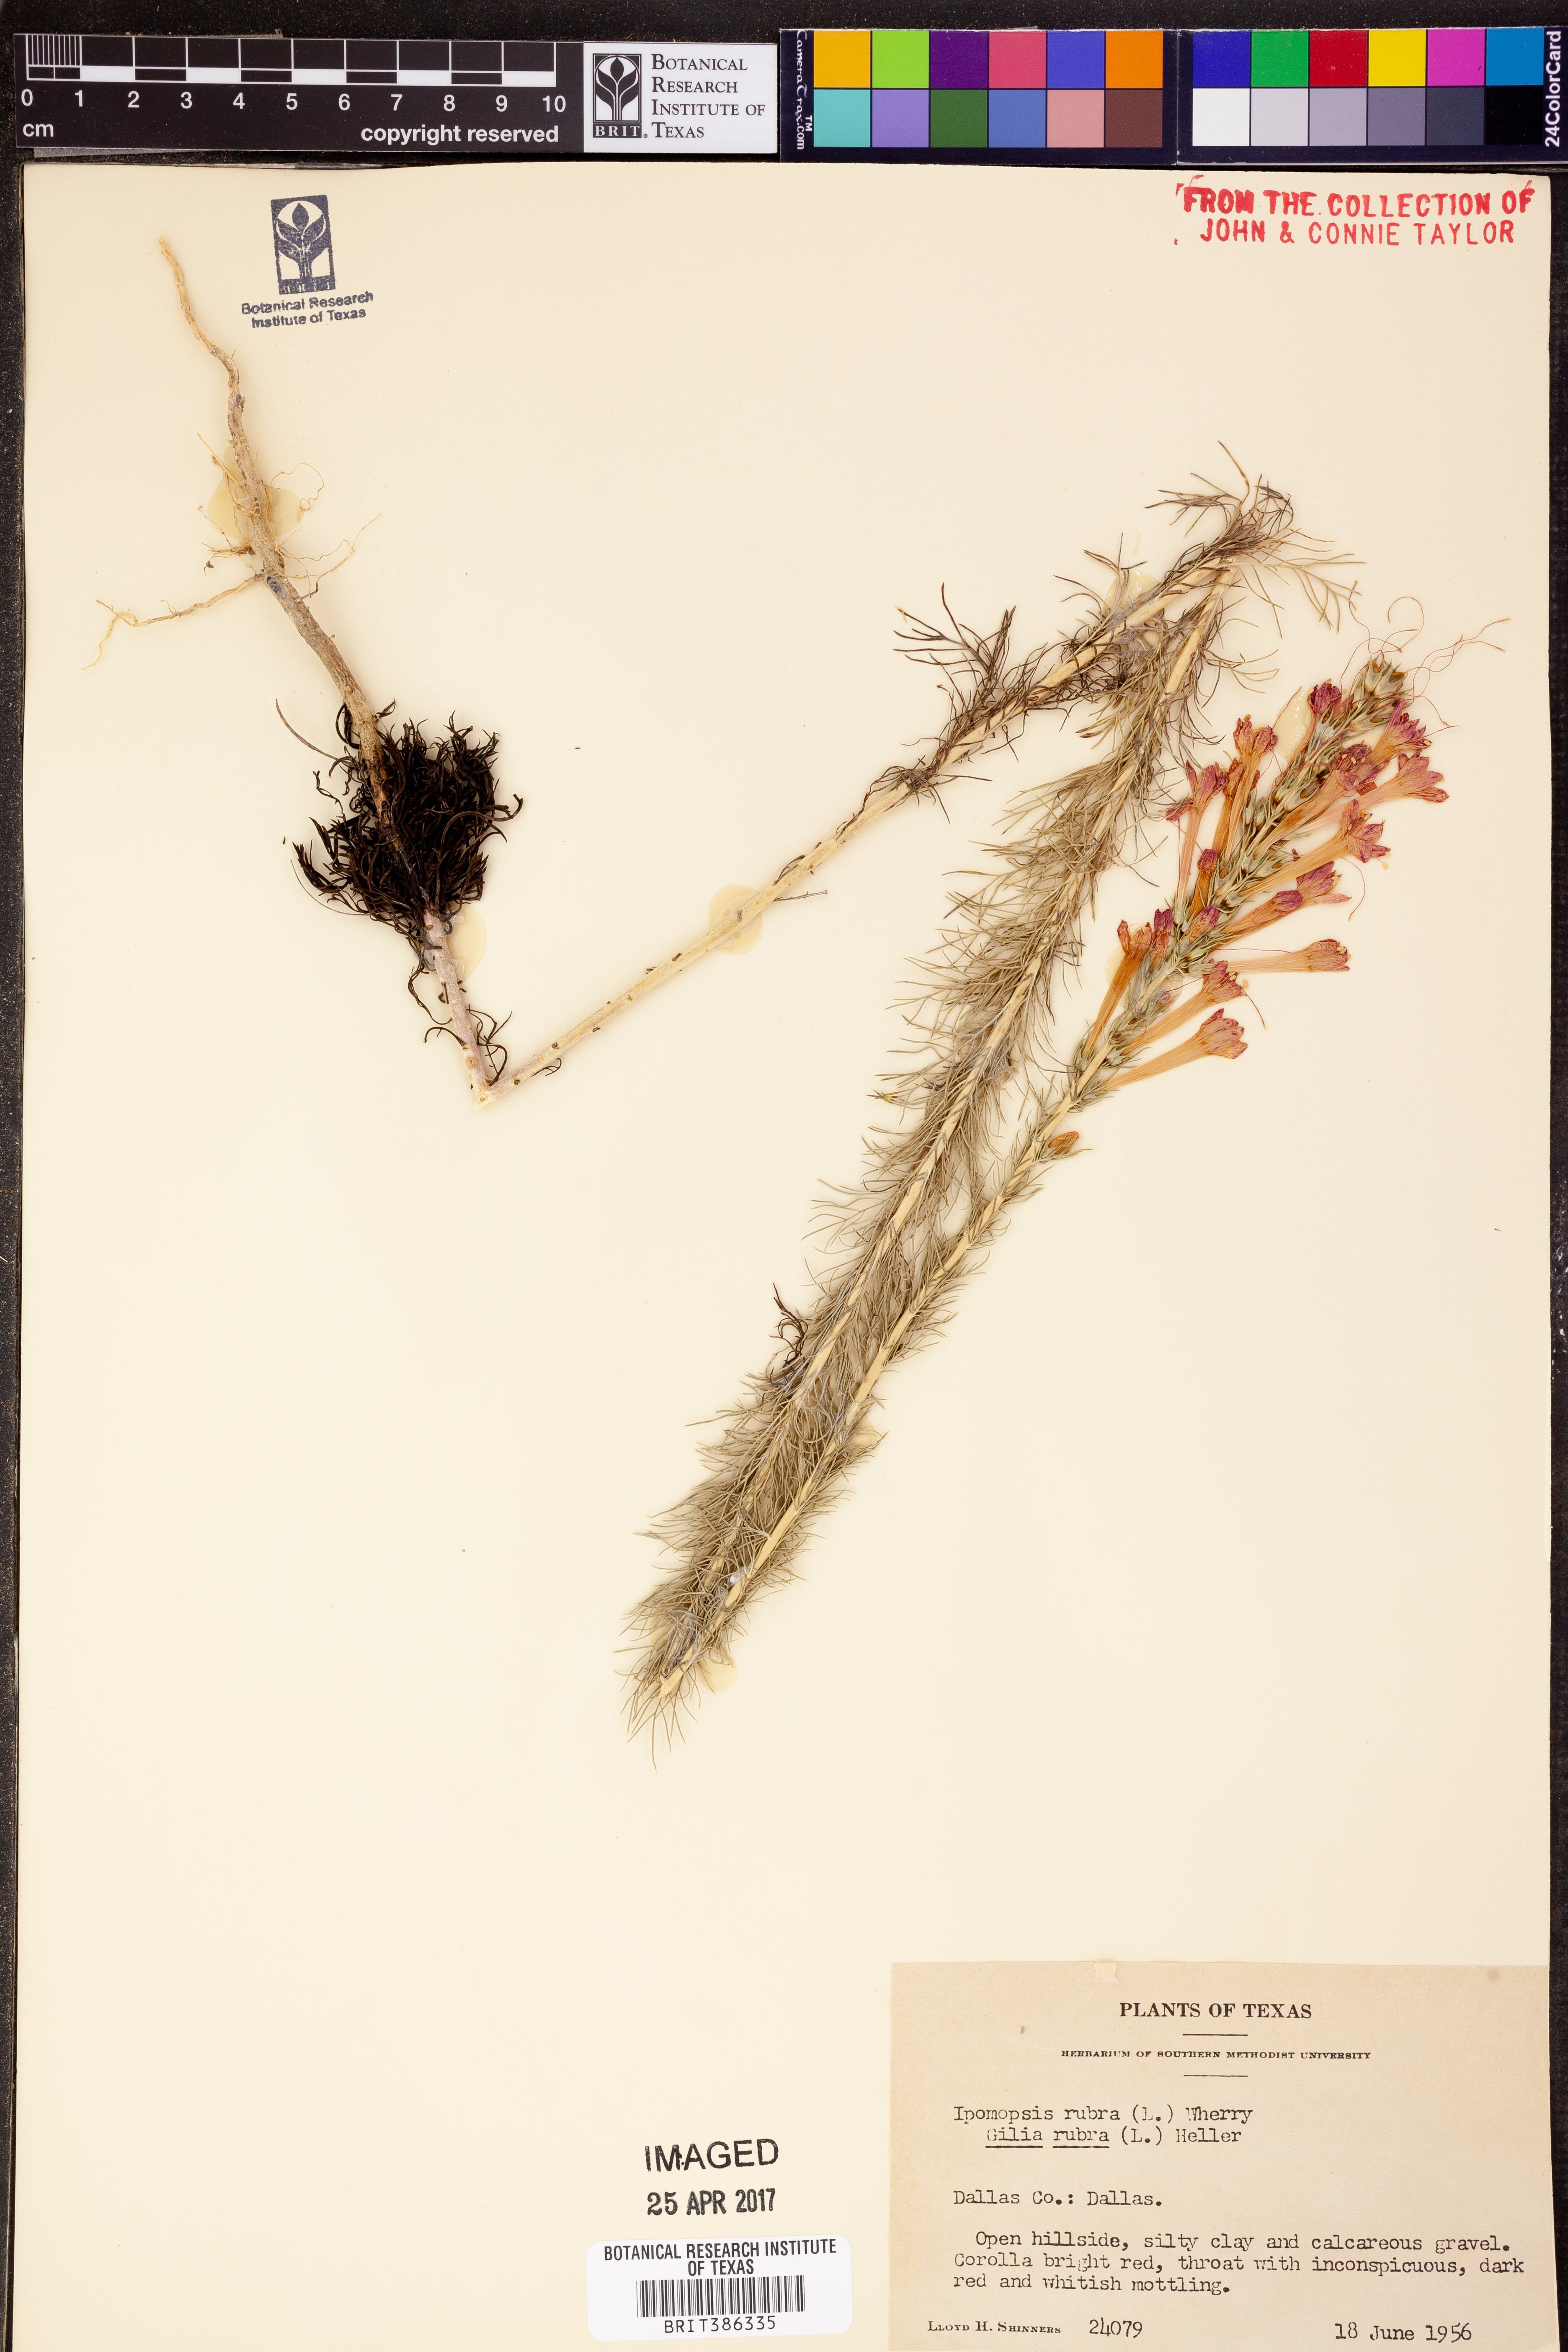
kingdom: Plantae
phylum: Tracheophyta
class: Magnoliopsida
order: Ericales
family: Polemoniaceae
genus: Ipomopsis
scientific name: Ipomopsis rubra
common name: Skyrocket
